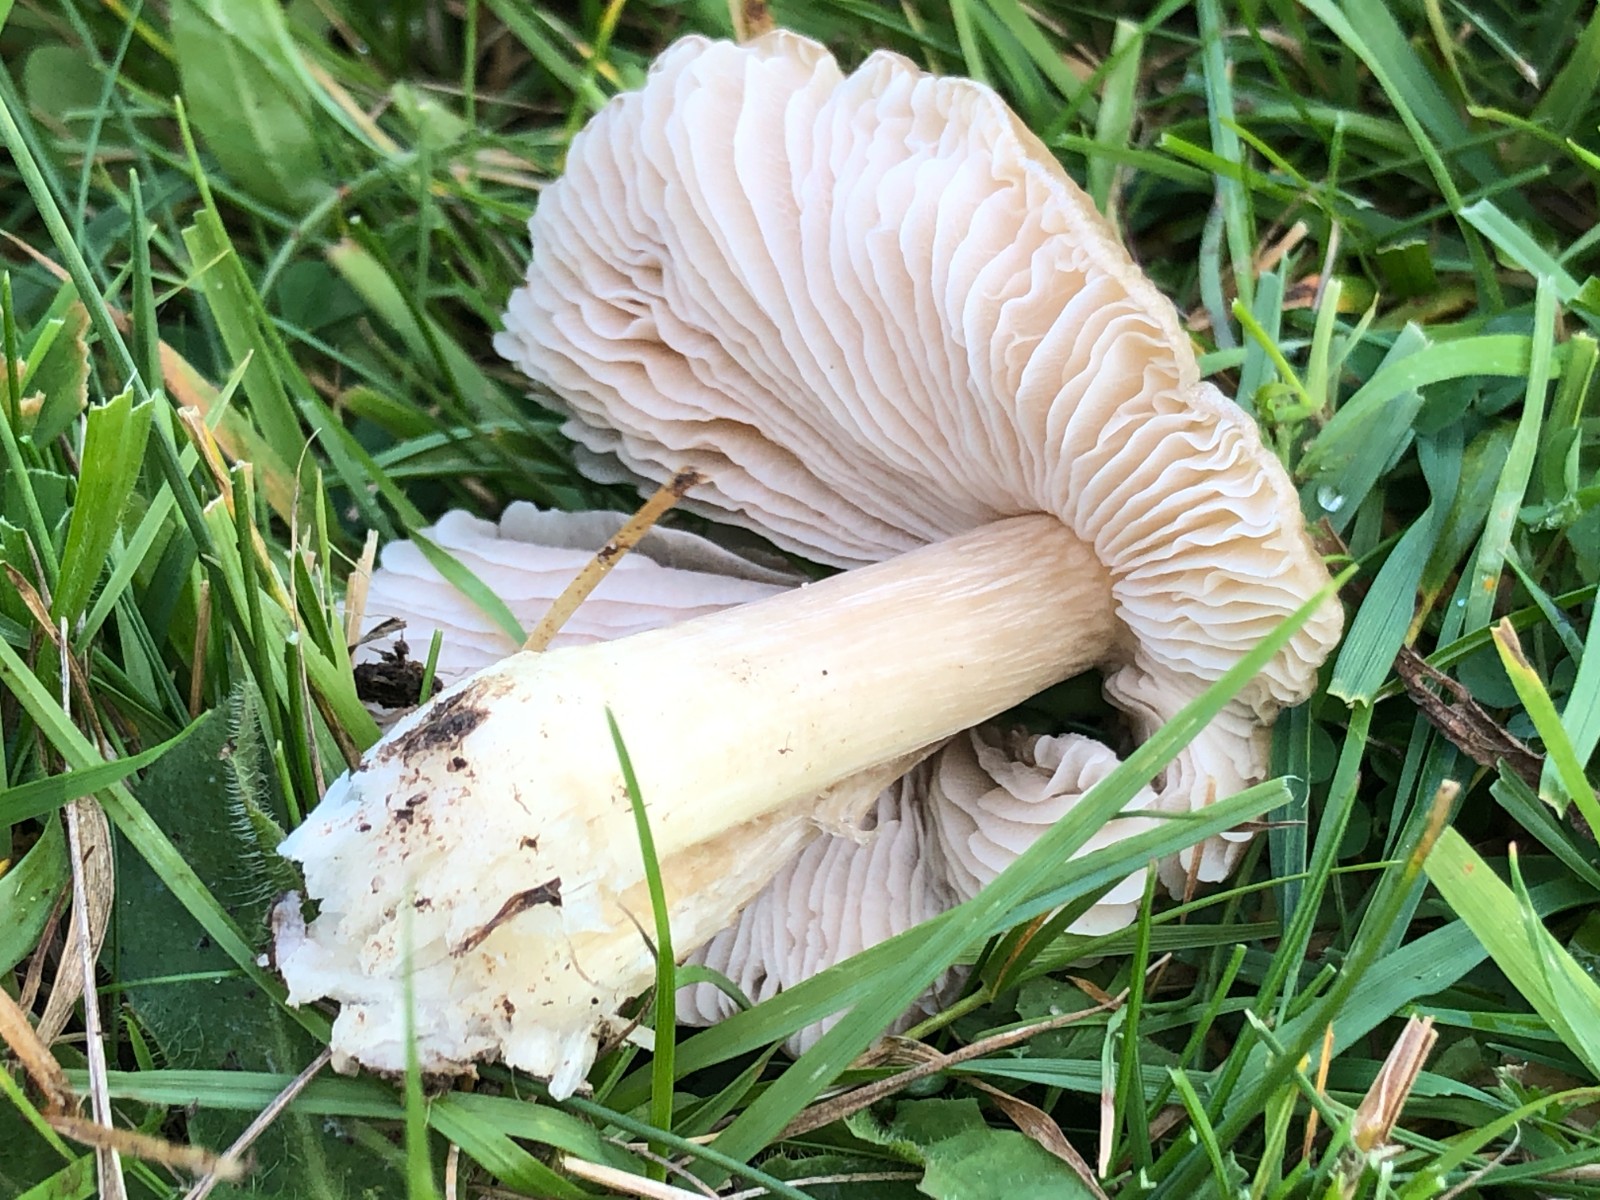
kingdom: Fungi
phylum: Basidiomycota
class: Agaricomycetes
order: Agaricales
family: Entolomataceae
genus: Entoloma
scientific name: Entoloma prunuloides
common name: mel-rødblad
